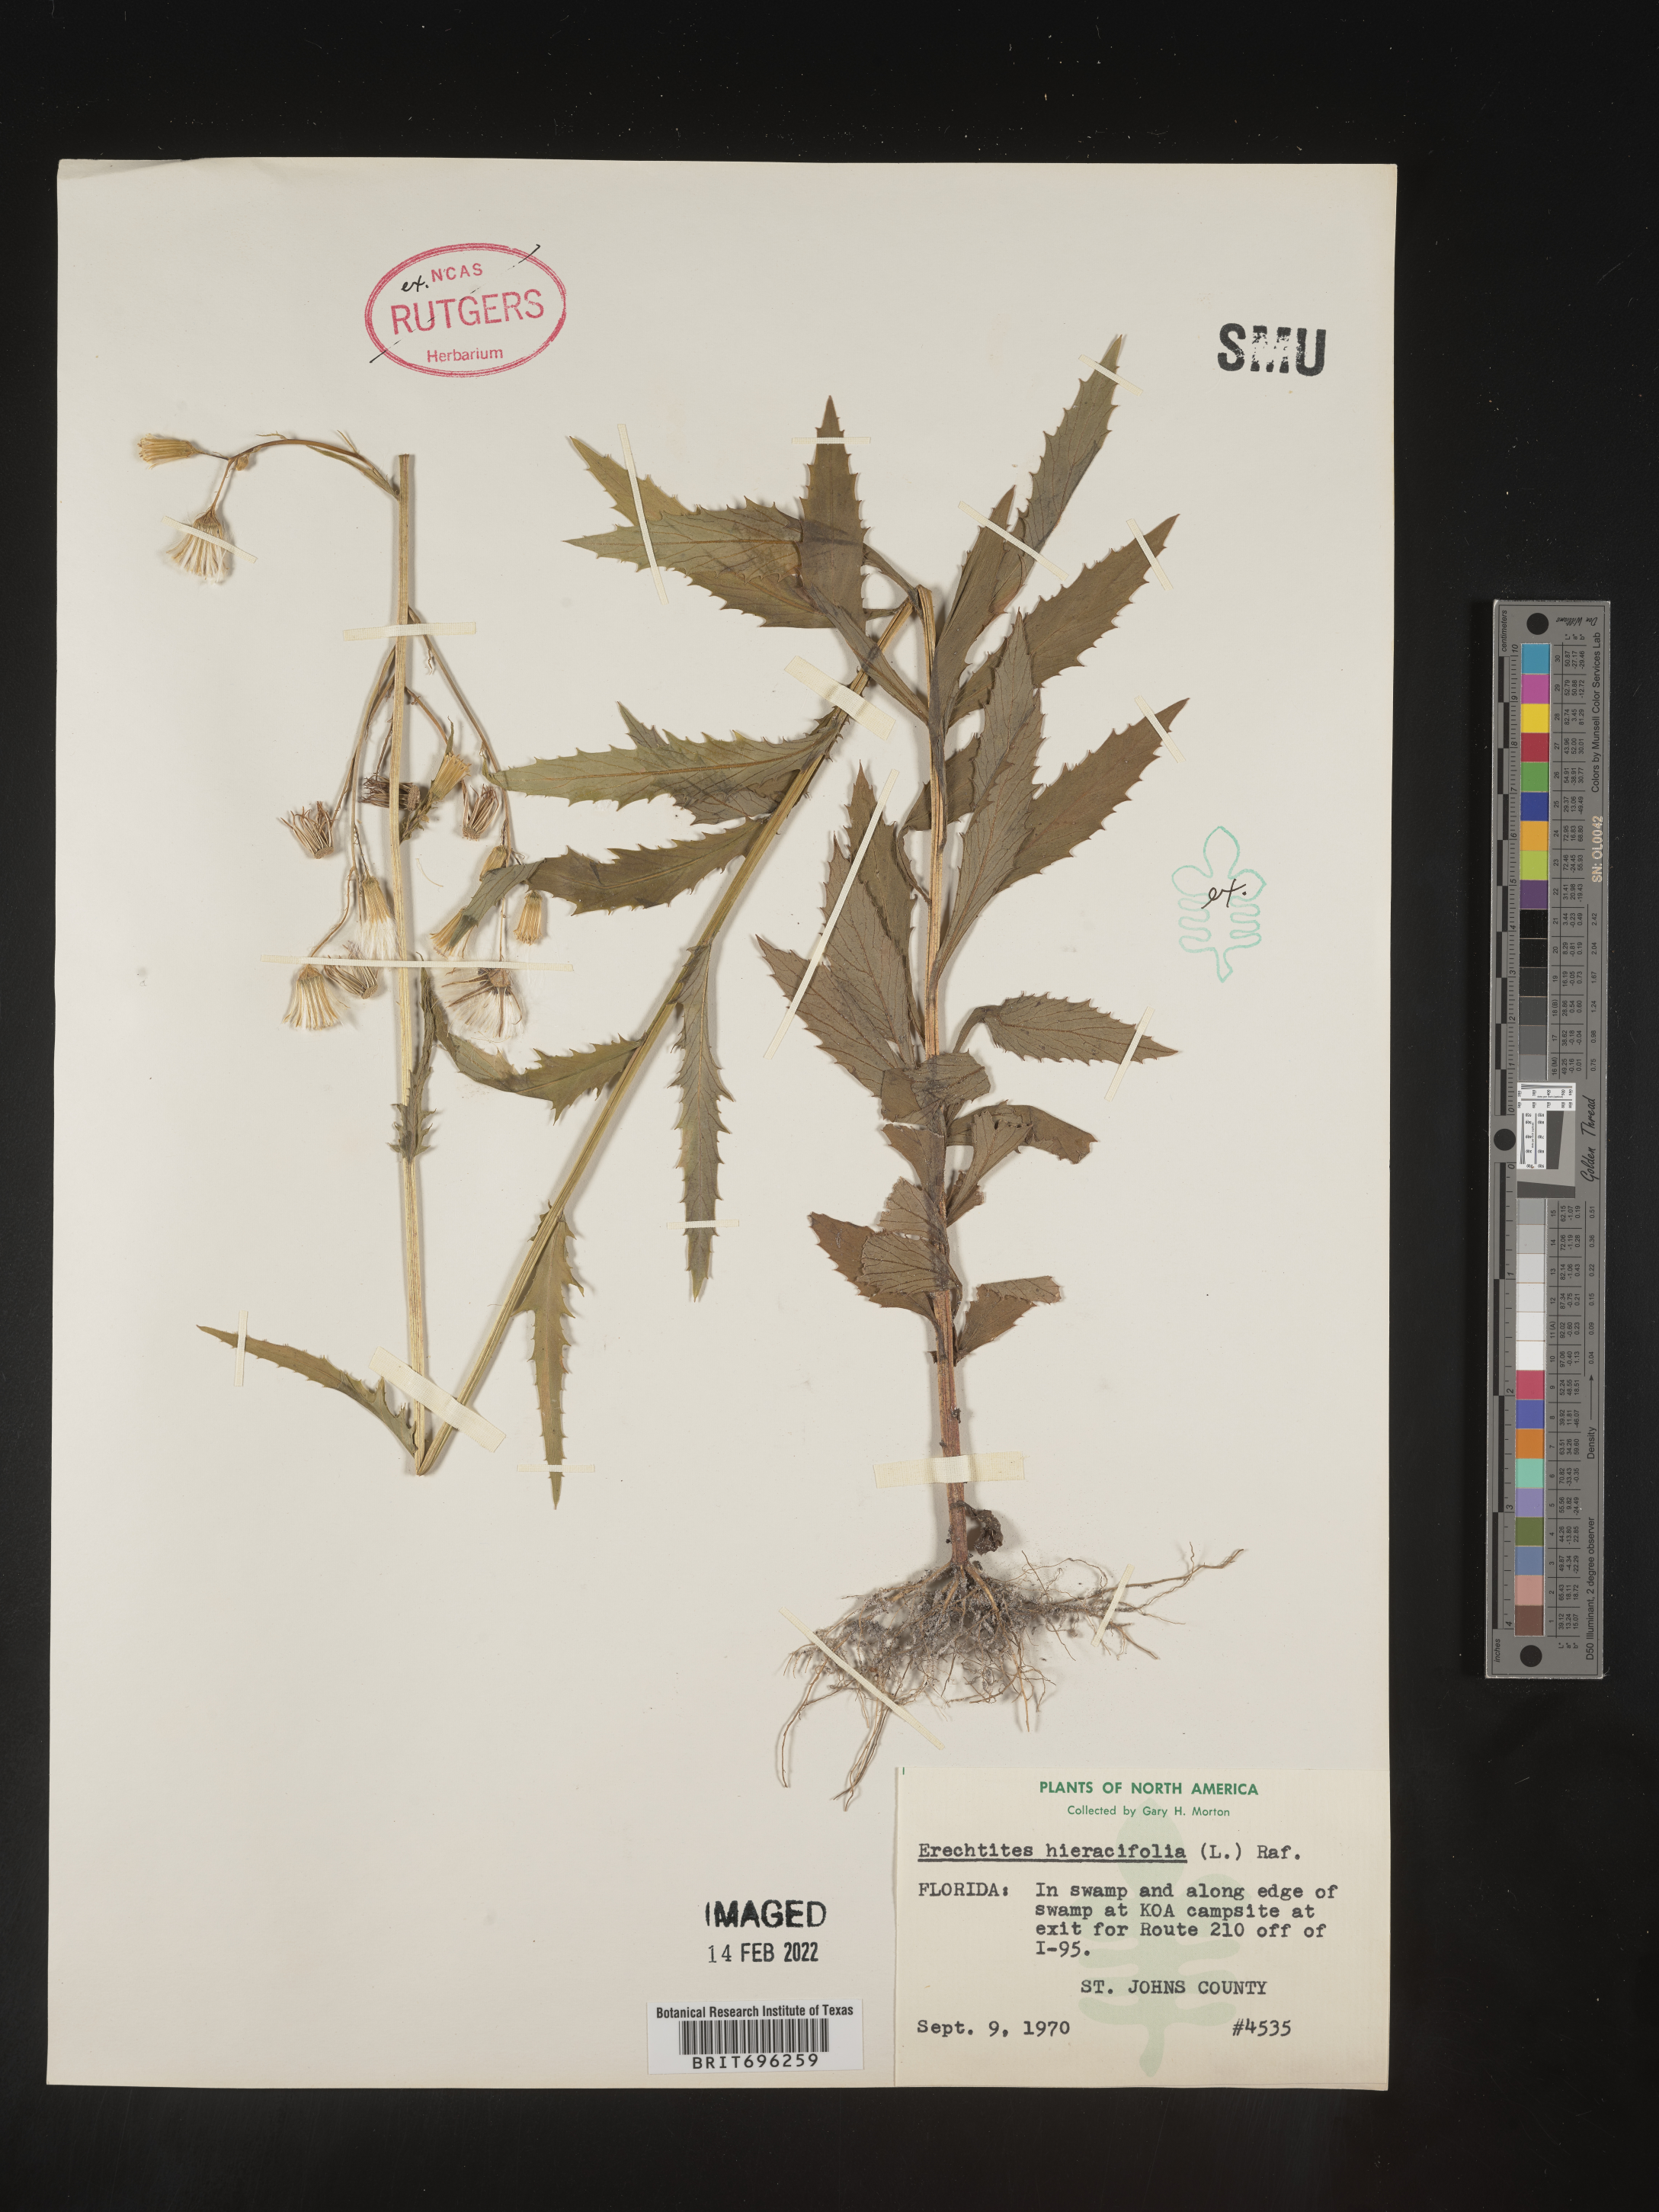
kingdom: Plantae
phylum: Tracheophyta
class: Magnoliopsida
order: Asterales
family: Asteraceae
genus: Erechtites
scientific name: Erechtites hieraciifolius
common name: American burnweed
